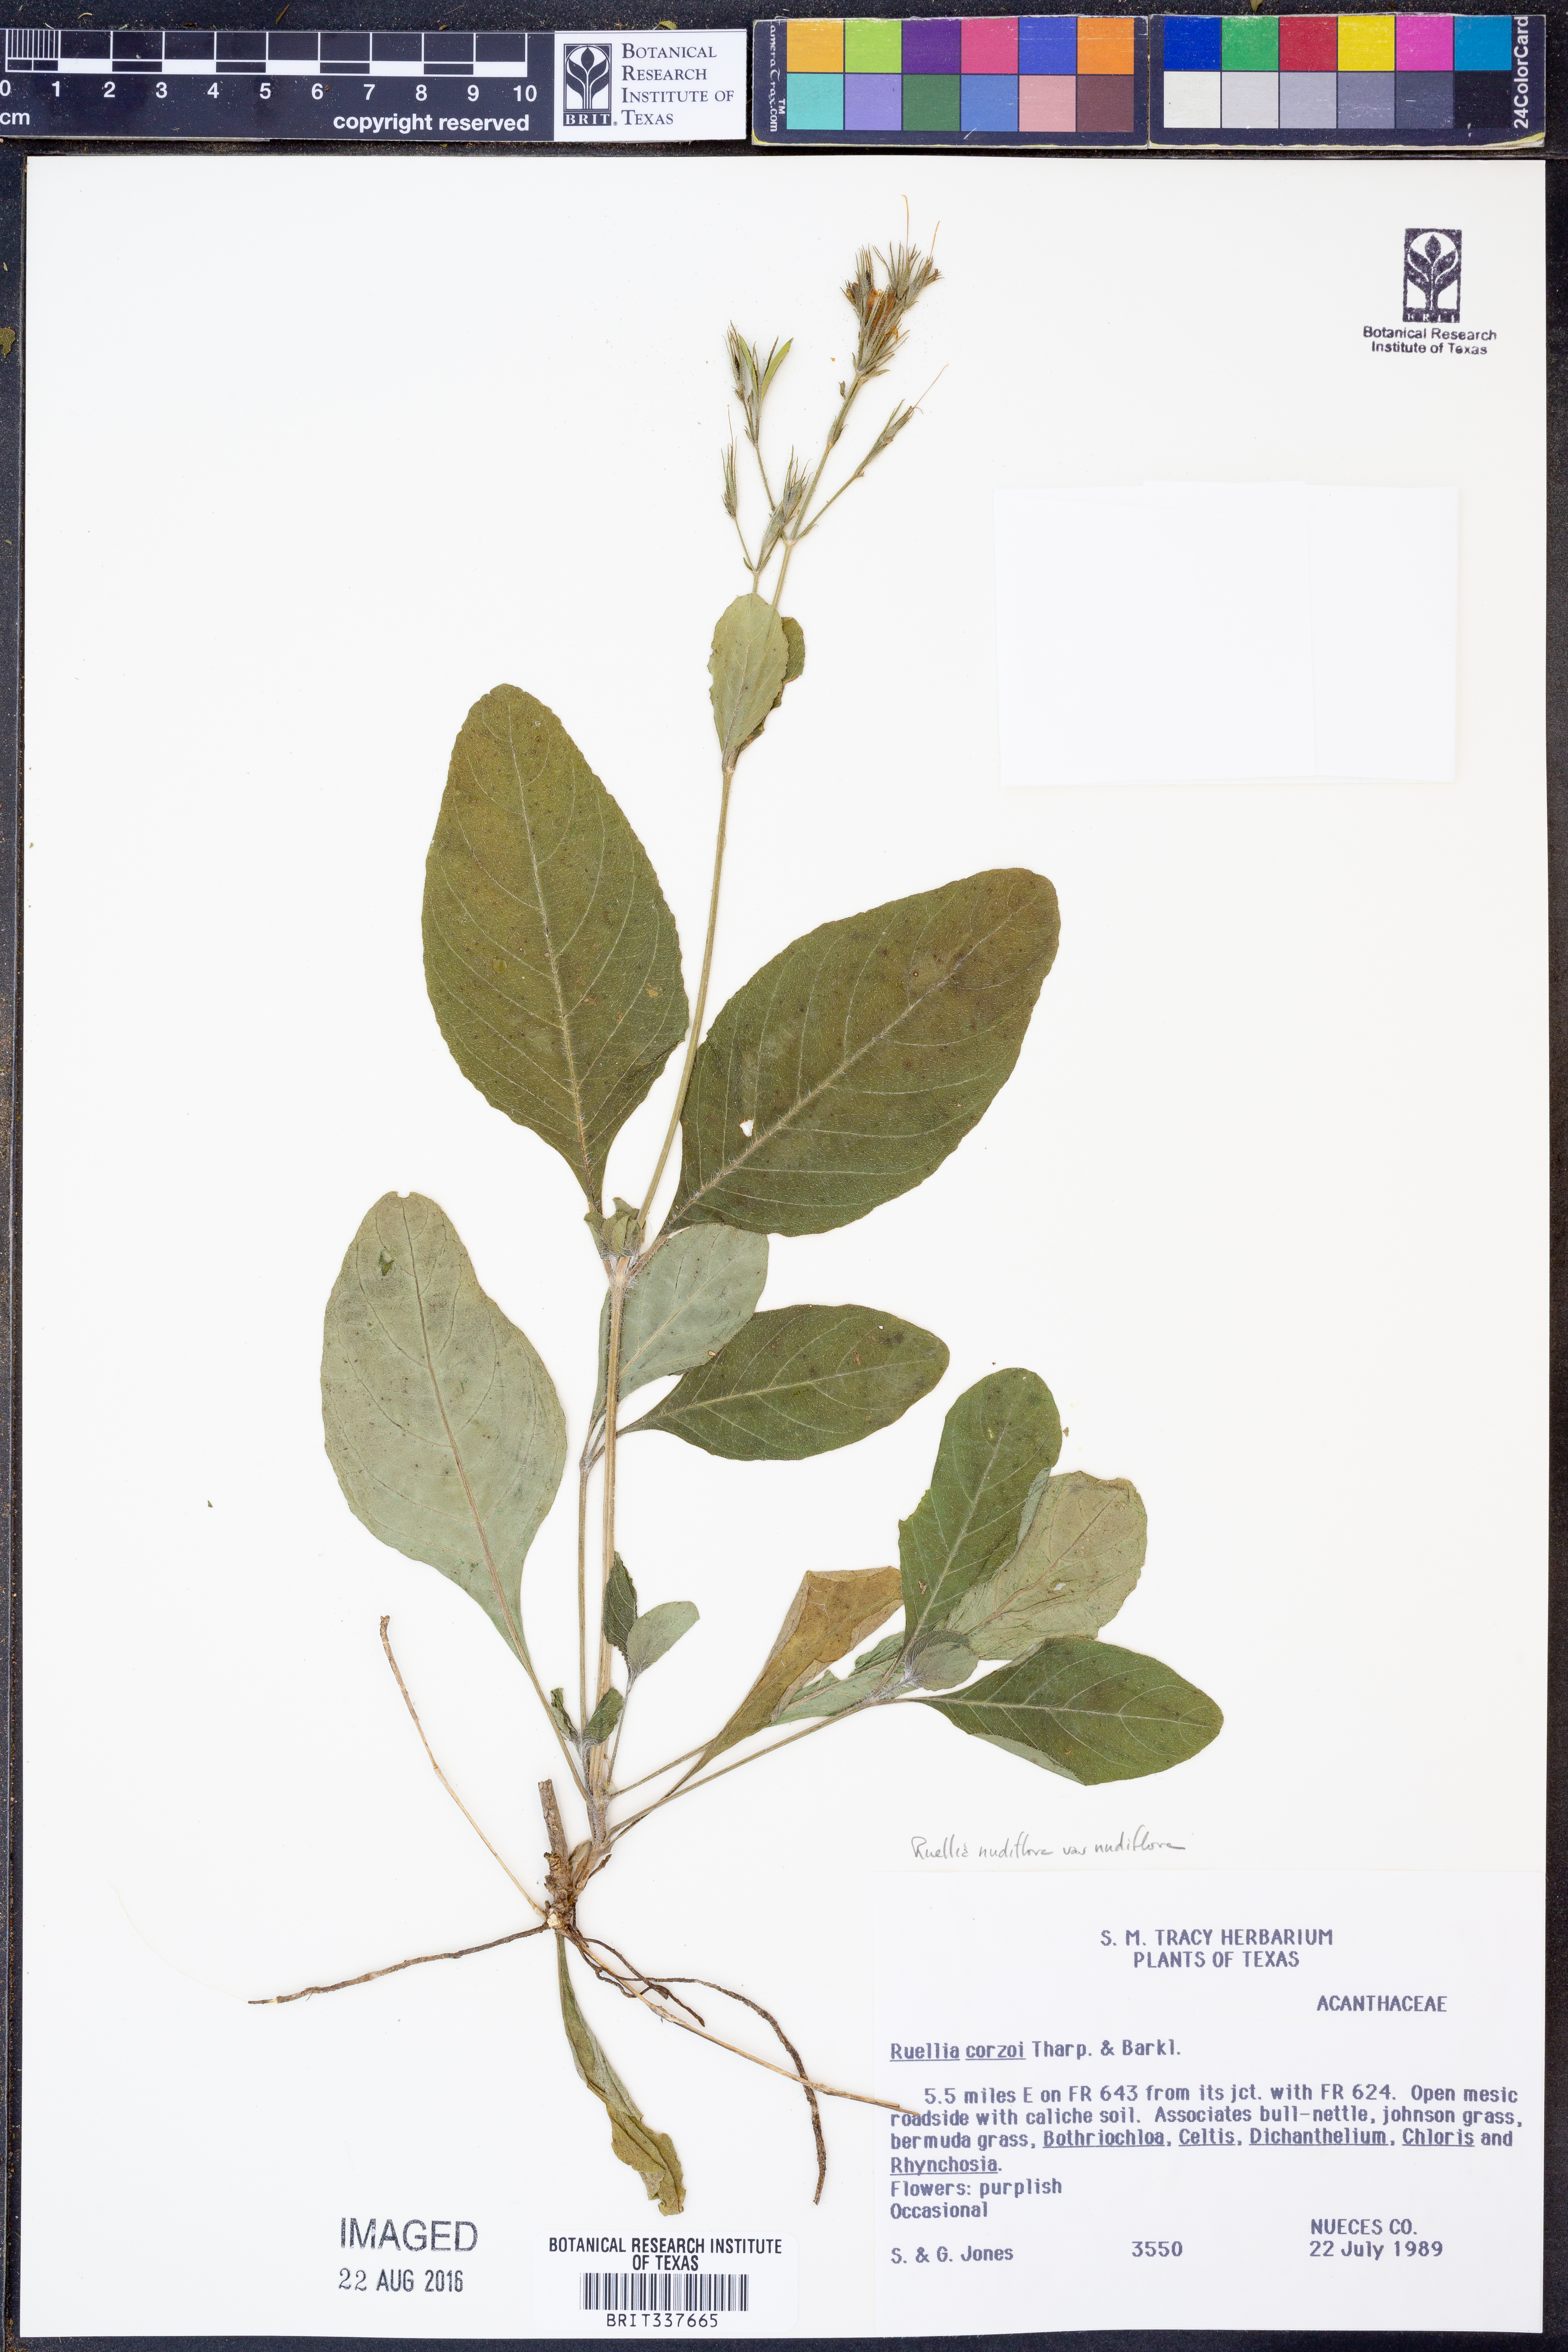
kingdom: Plantae
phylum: Tracheophyta
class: Magnoliopsida
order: Lamiales
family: Acanthaceae
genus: Ruellia
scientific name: Ruellia ciliatiflora
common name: Hairyflower wild petunia
